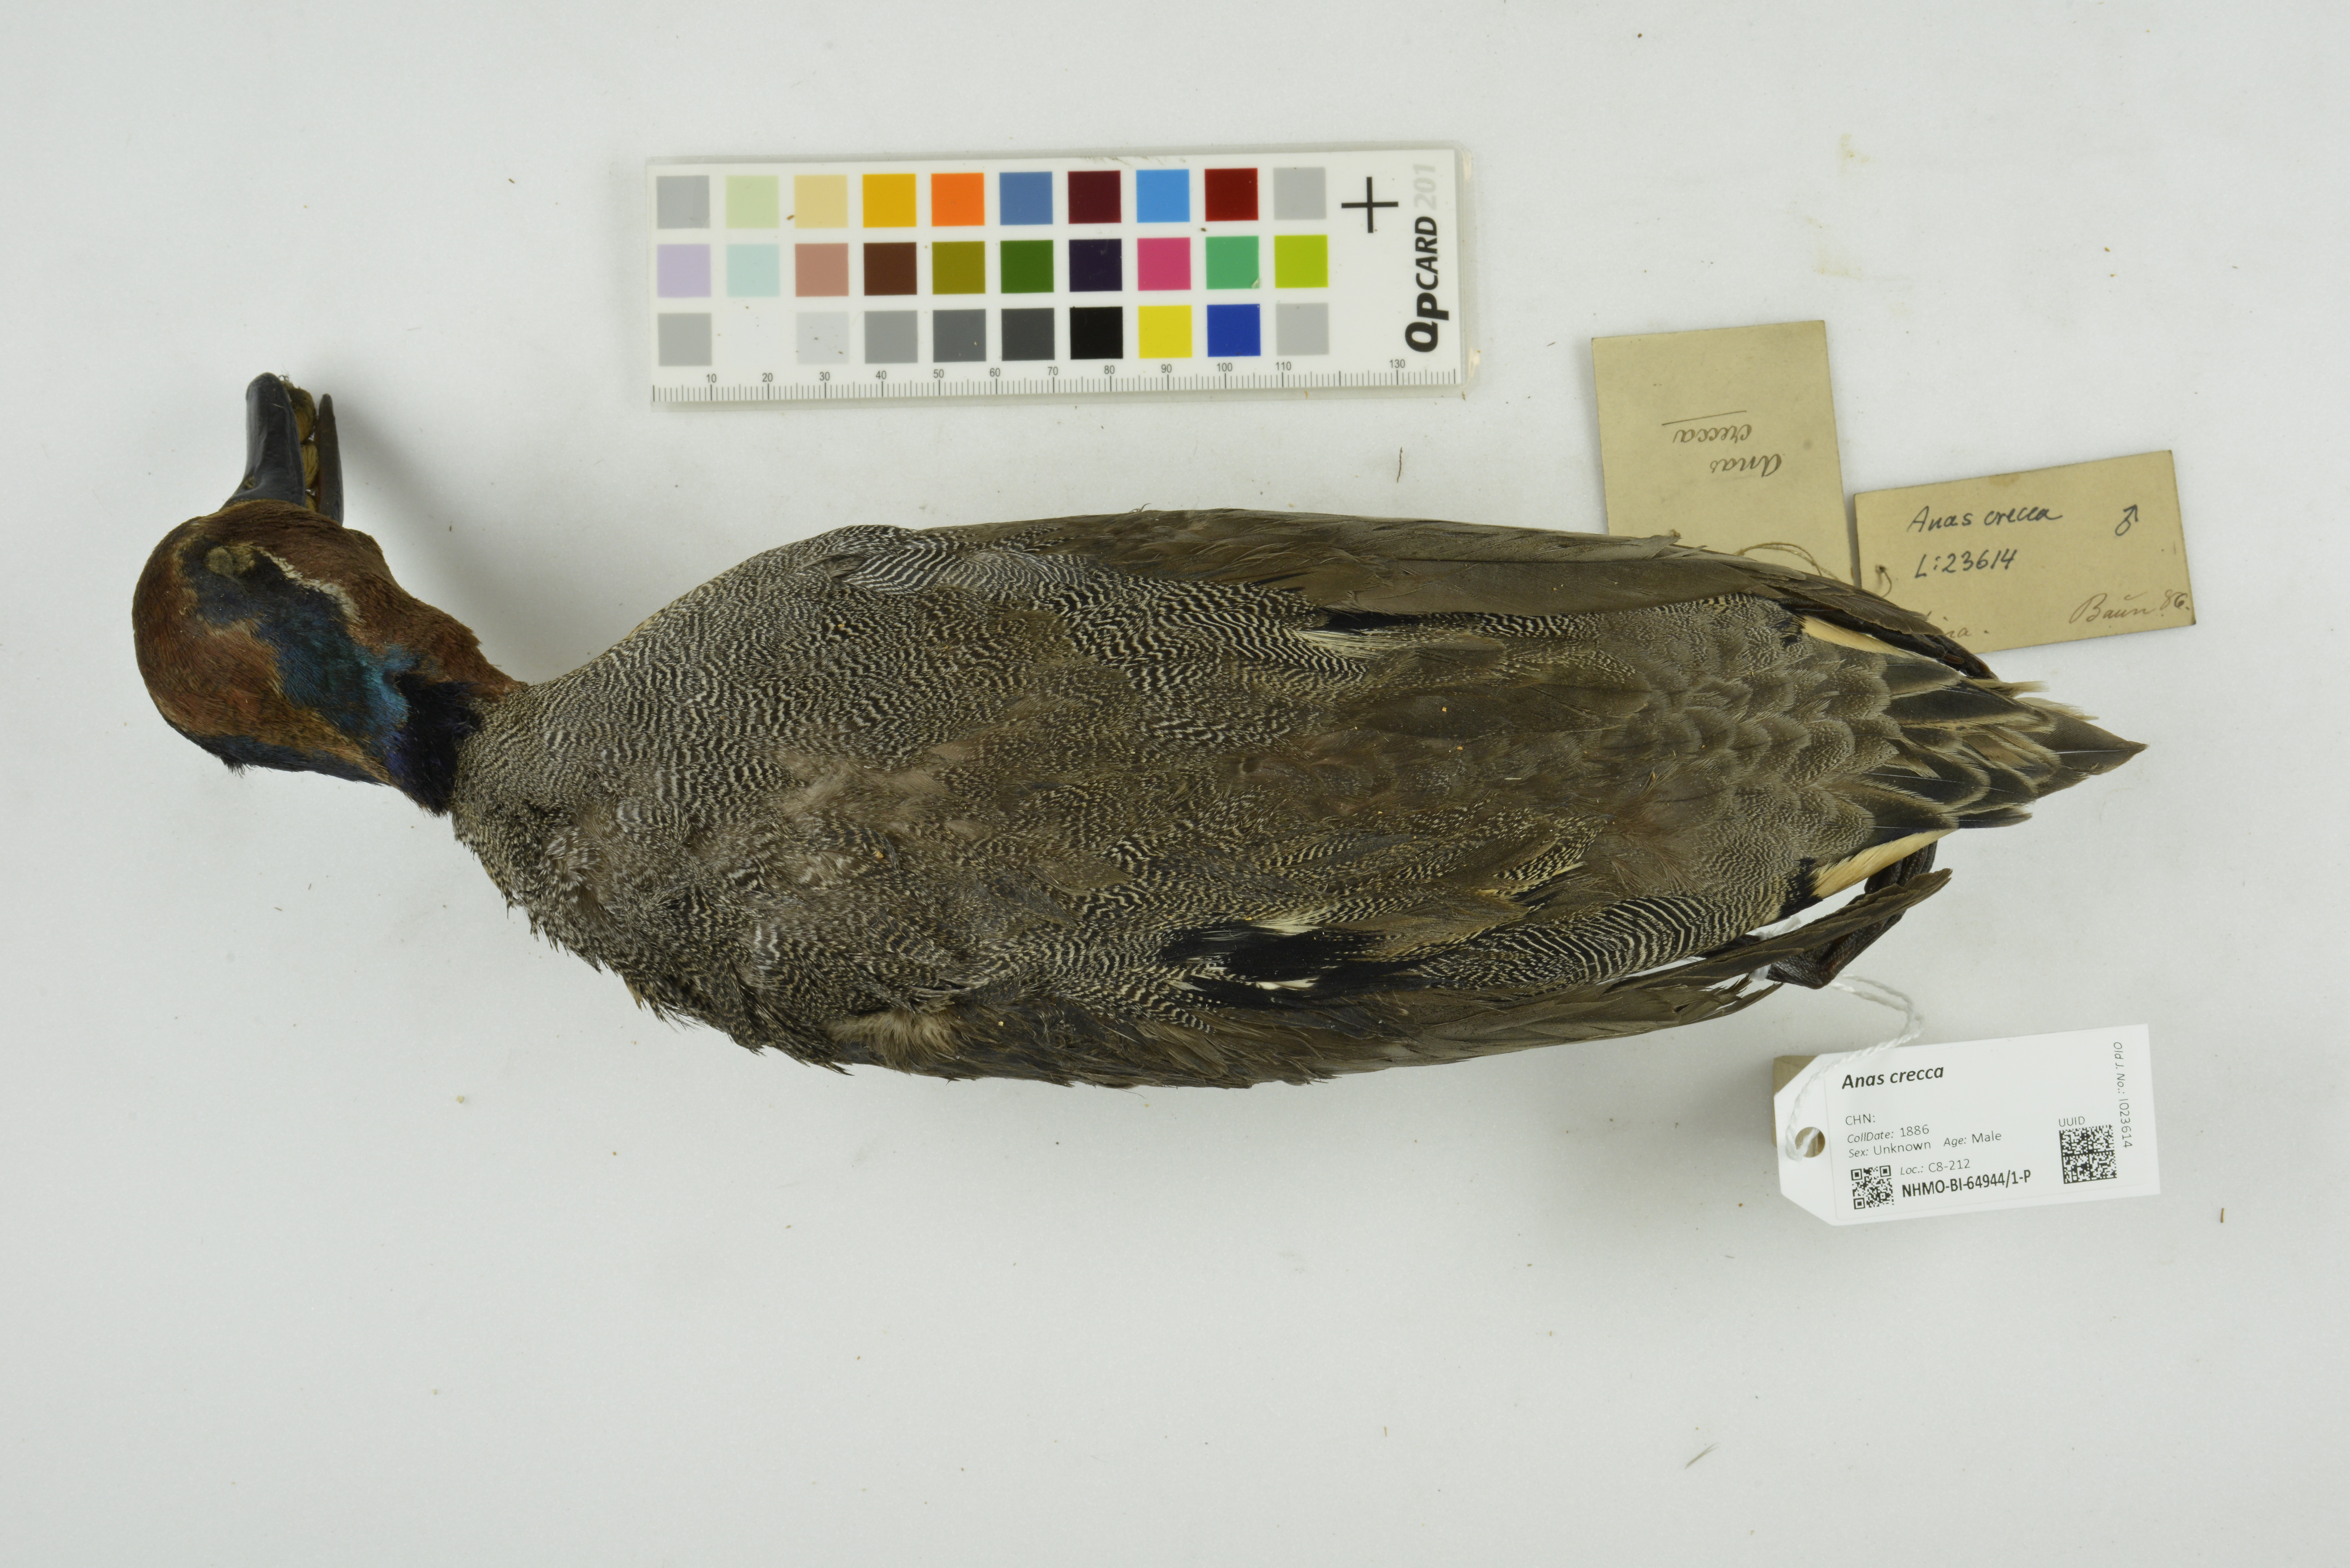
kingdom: Animalia
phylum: Chordata
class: Aves
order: Anseriformes
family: Anatidae
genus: Anas
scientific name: Anas crecca
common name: Eurasian teal
